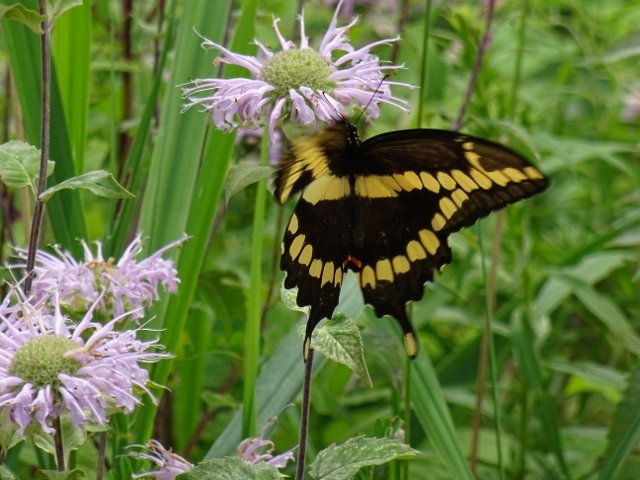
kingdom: Animalia
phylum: Arthropoda
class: Insecta
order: Lepidoptera
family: Papilionidae
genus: Papilio
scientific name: Papilio cresphontes
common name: Eastern Giant Swallowtail
